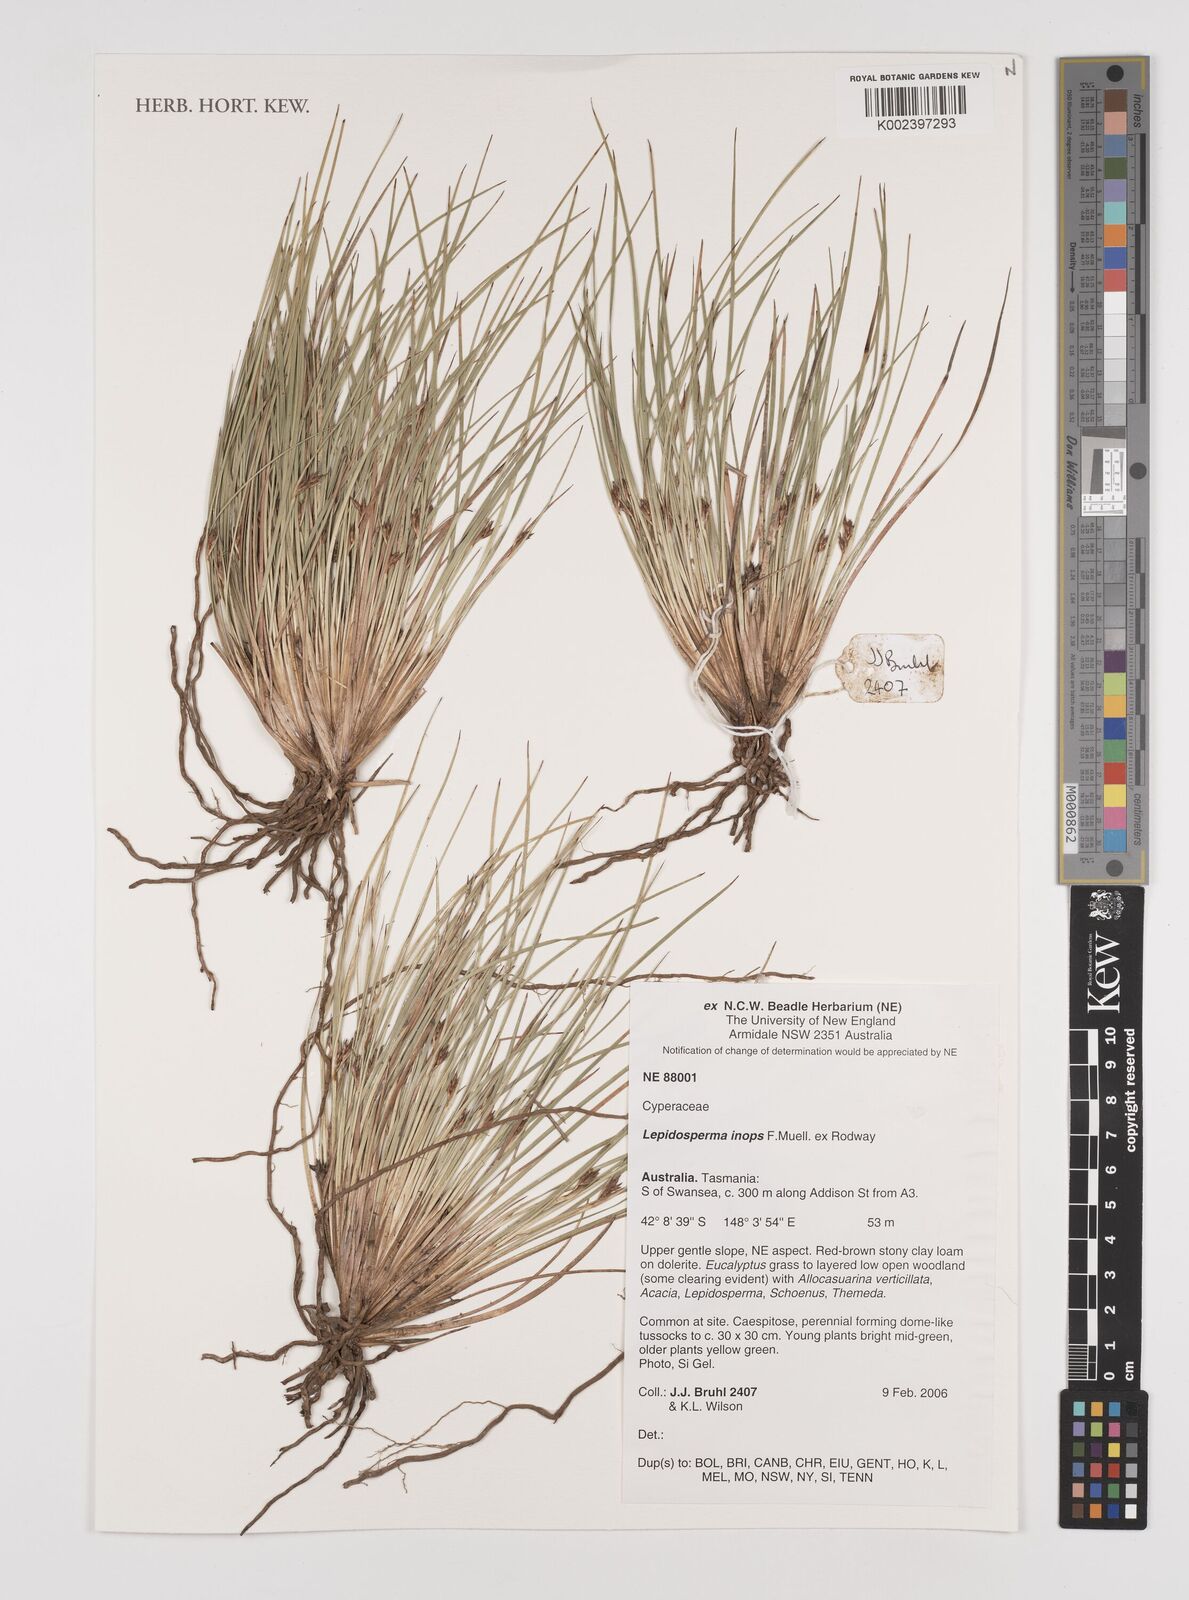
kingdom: Plantae
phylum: Tracheophyta
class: Liliopsida
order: Poales
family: Cyperaceae
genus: Lepidosperma
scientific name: Lepidosperma inops
